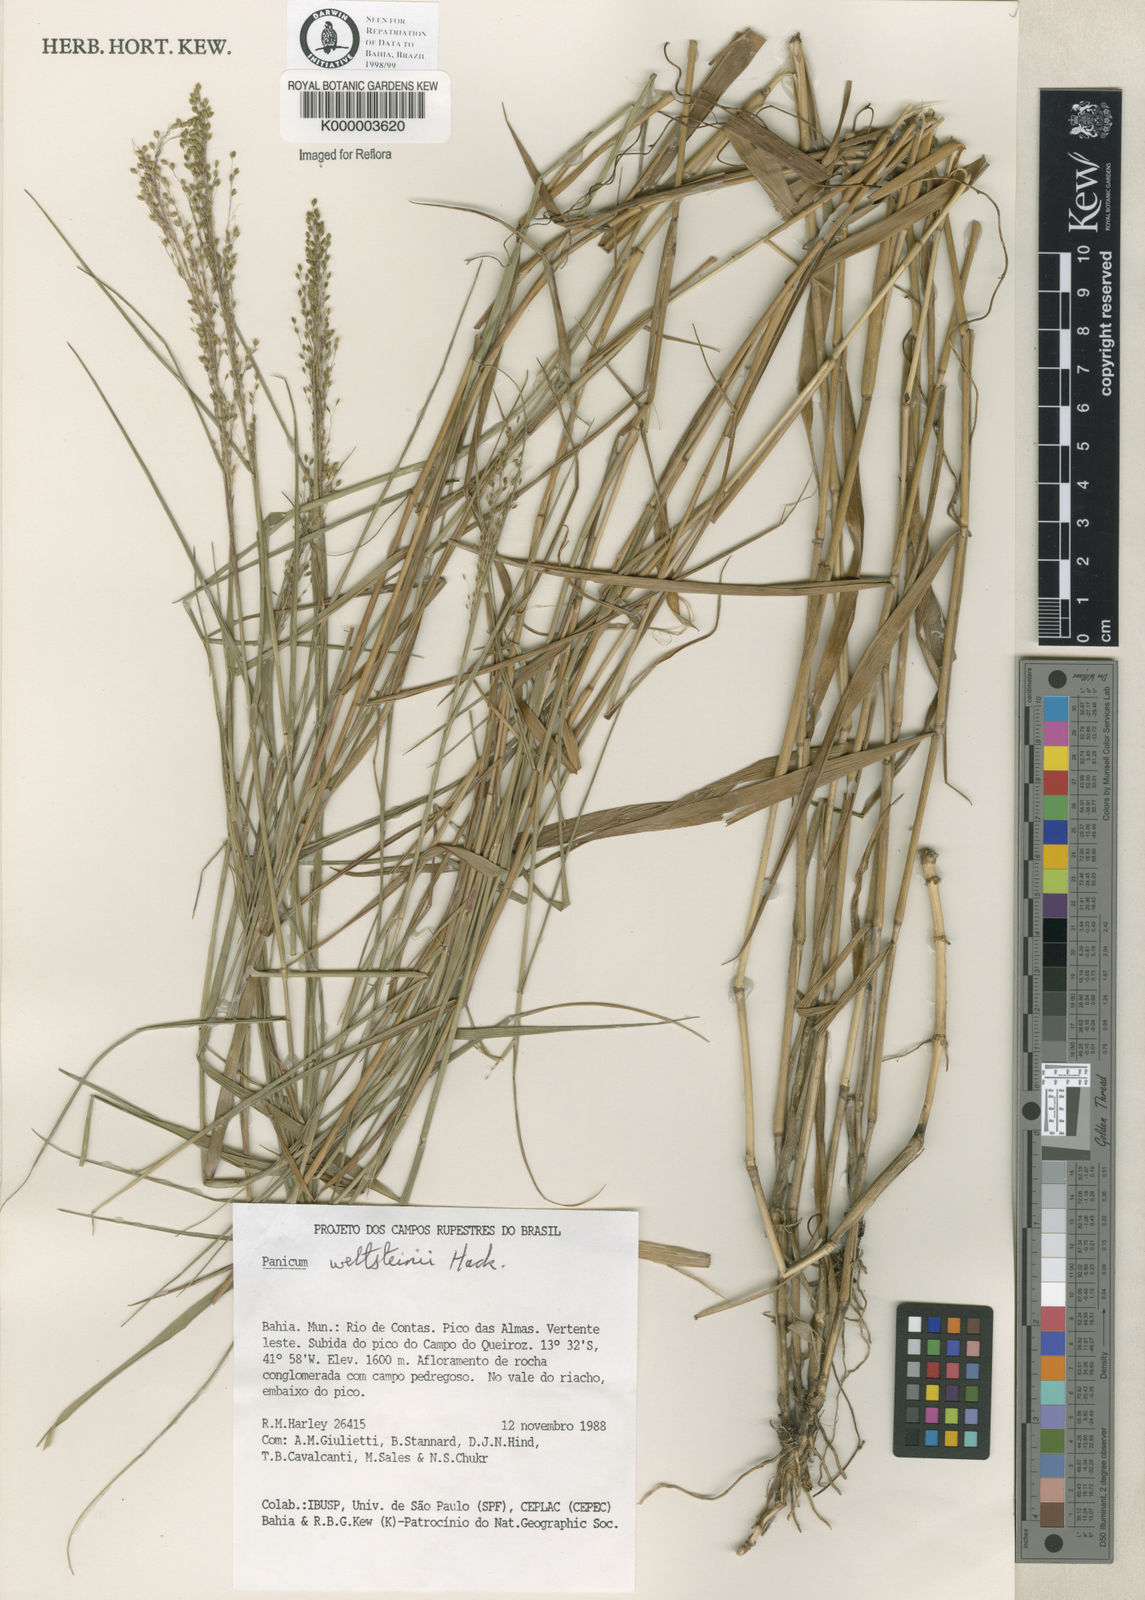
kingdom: Plantae
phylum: Tracheophyta
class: Liliopsida
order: Poales
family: Poaceae
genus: Trichanthecium
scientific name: Trichanthecium wettsteinii
